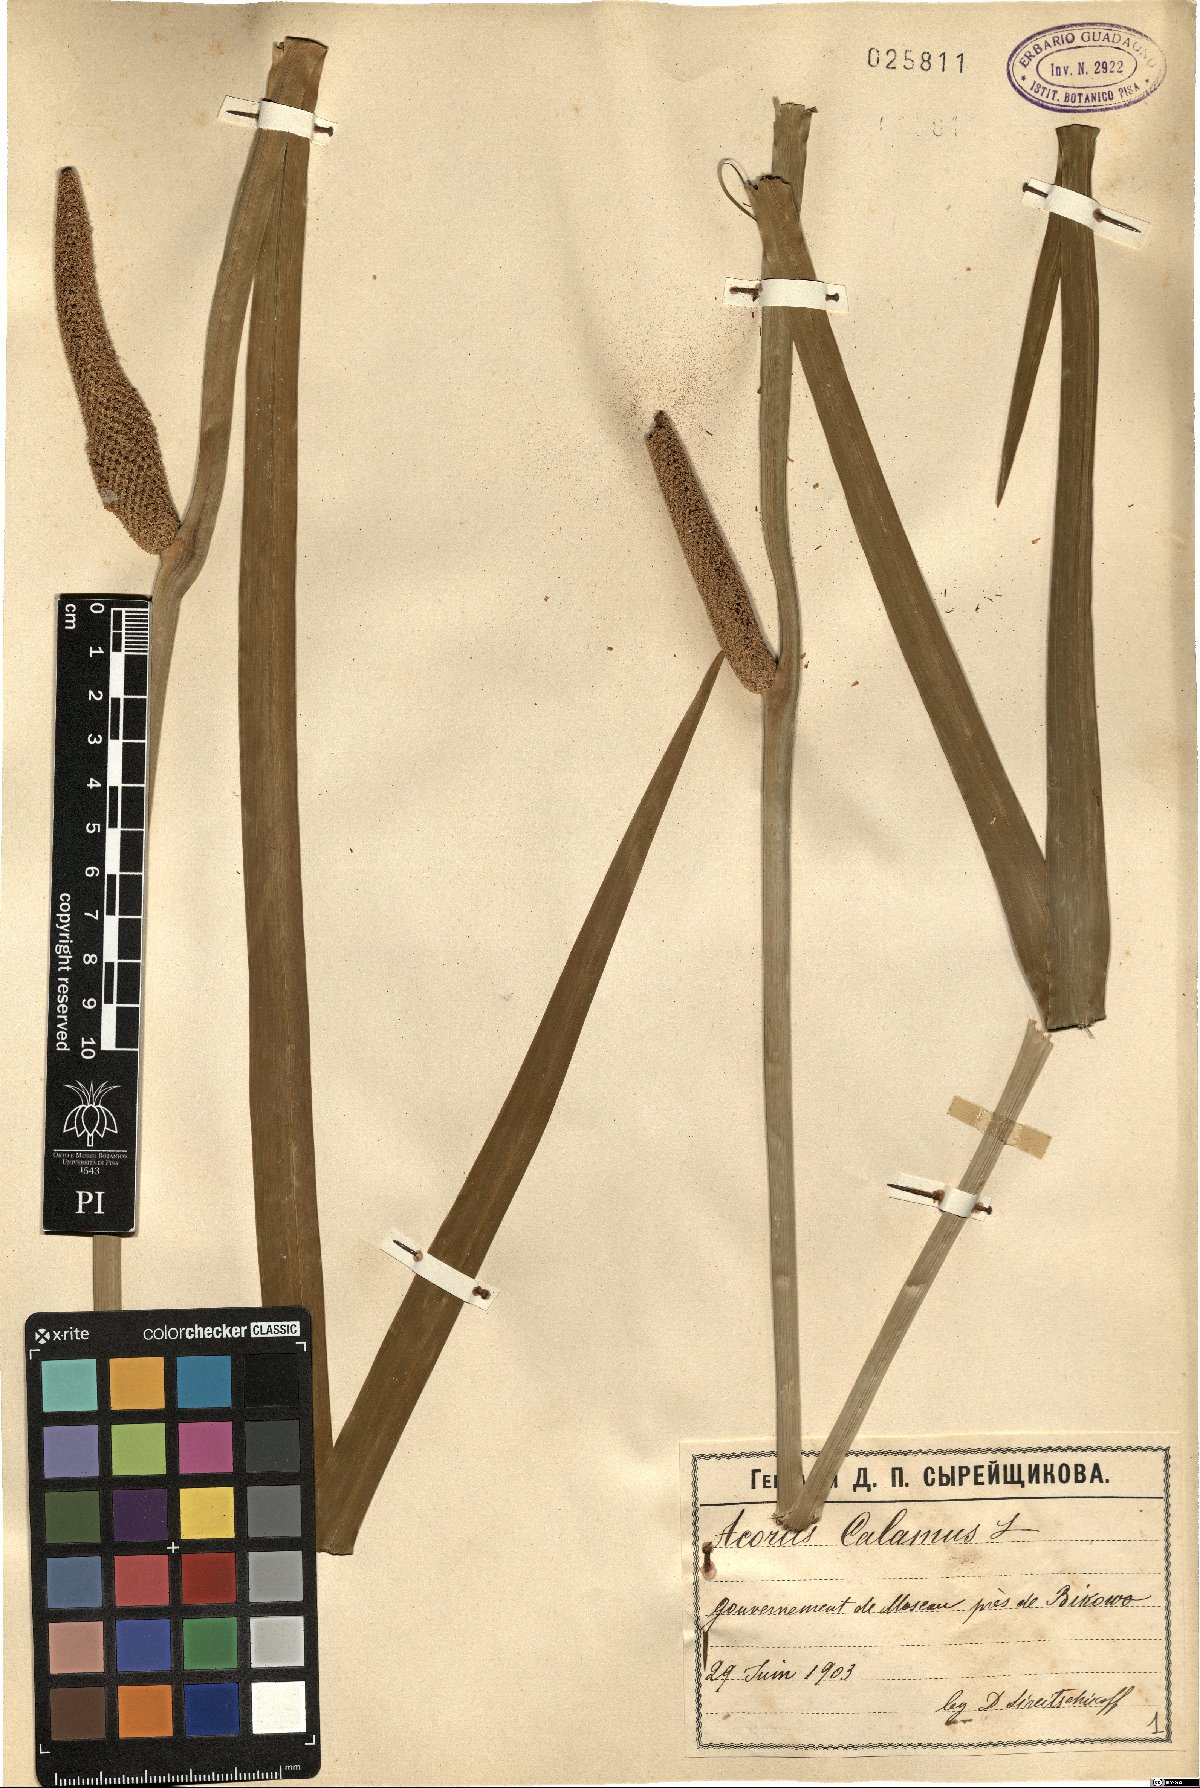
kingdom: Plantae
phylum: Tracheophyta
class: Liliopsida
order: Acorales
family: Acoraceae
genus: Acorus
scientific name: Acorus calamus
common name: Sweet-flag
